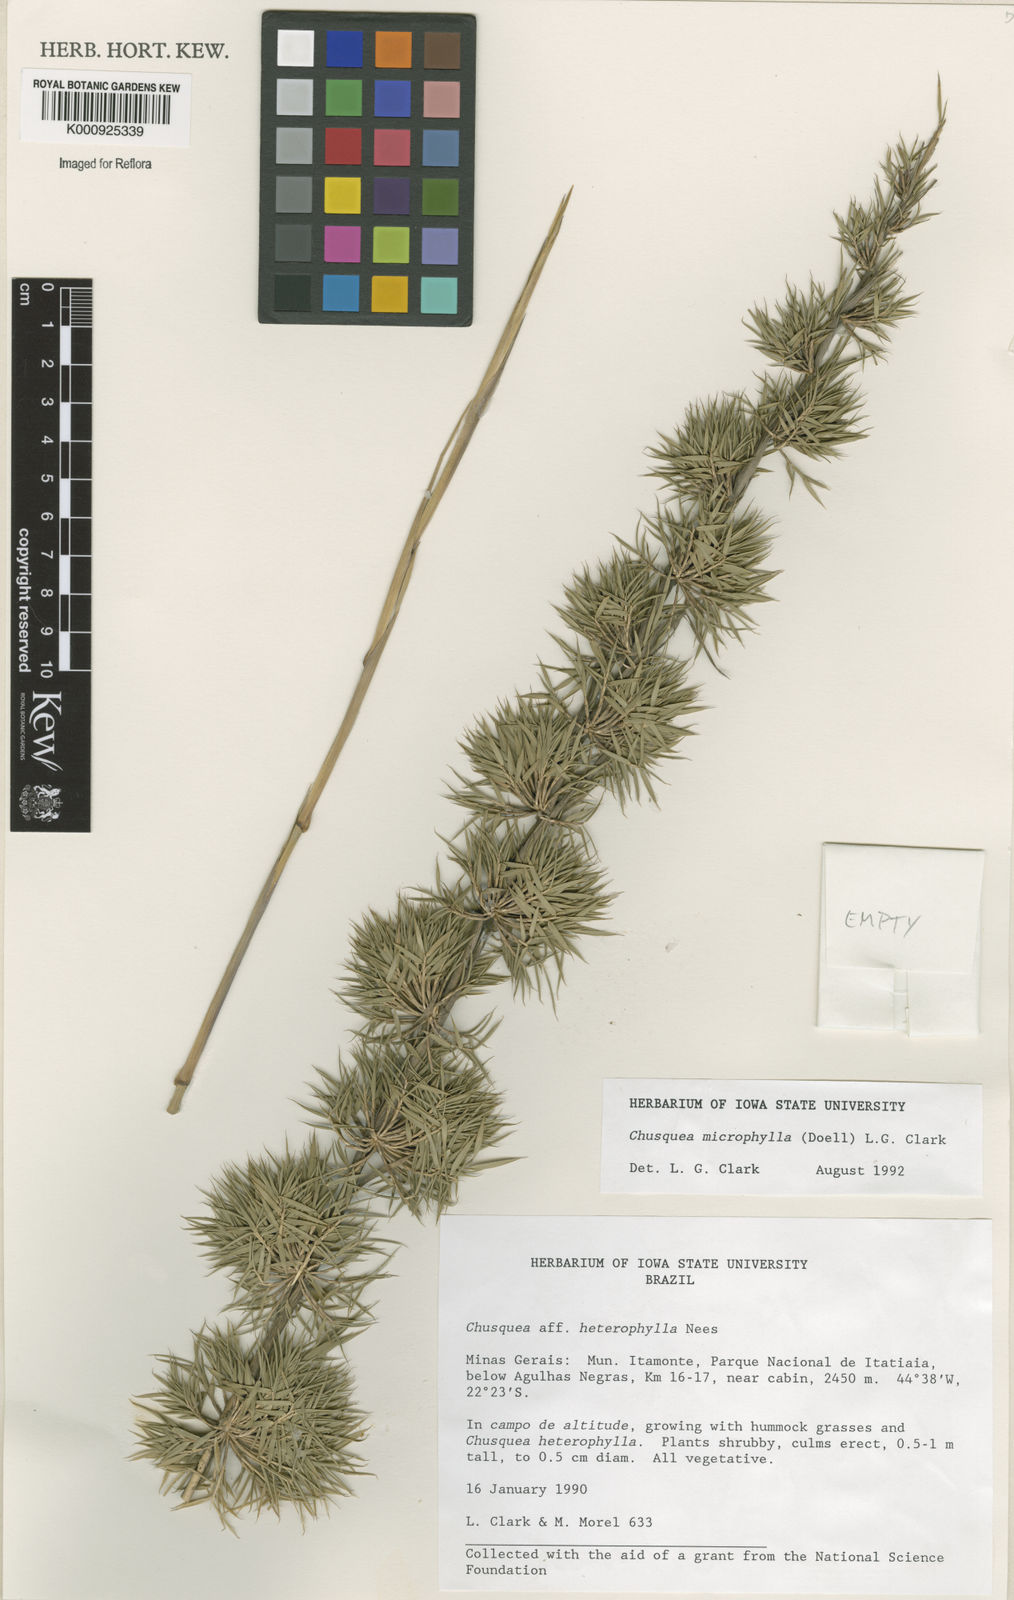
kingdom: Plantae
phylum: Tracheophyta
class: Liliopsida
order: Poales
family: Poaceae
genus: Chusquea
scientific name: Chusquea
